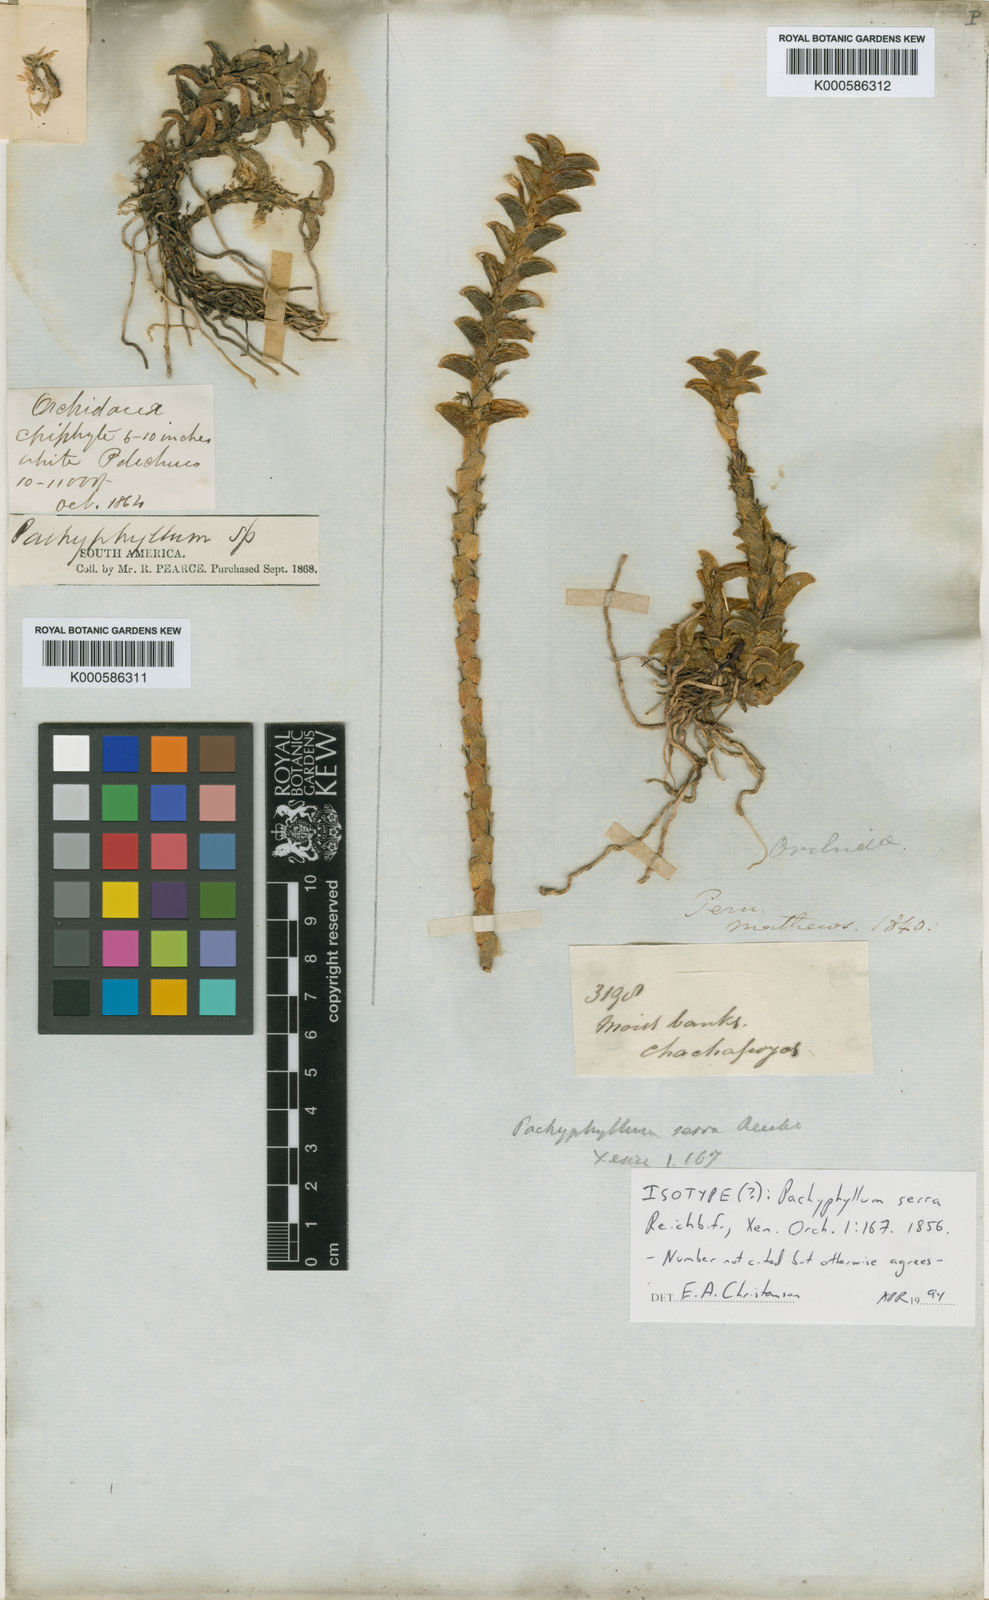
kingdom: Plantae
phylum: Tracheophyta
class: Liliopsida
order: Asparagales
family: Orchidaceae
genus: Fernandezia
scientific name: Fernandezia serra
